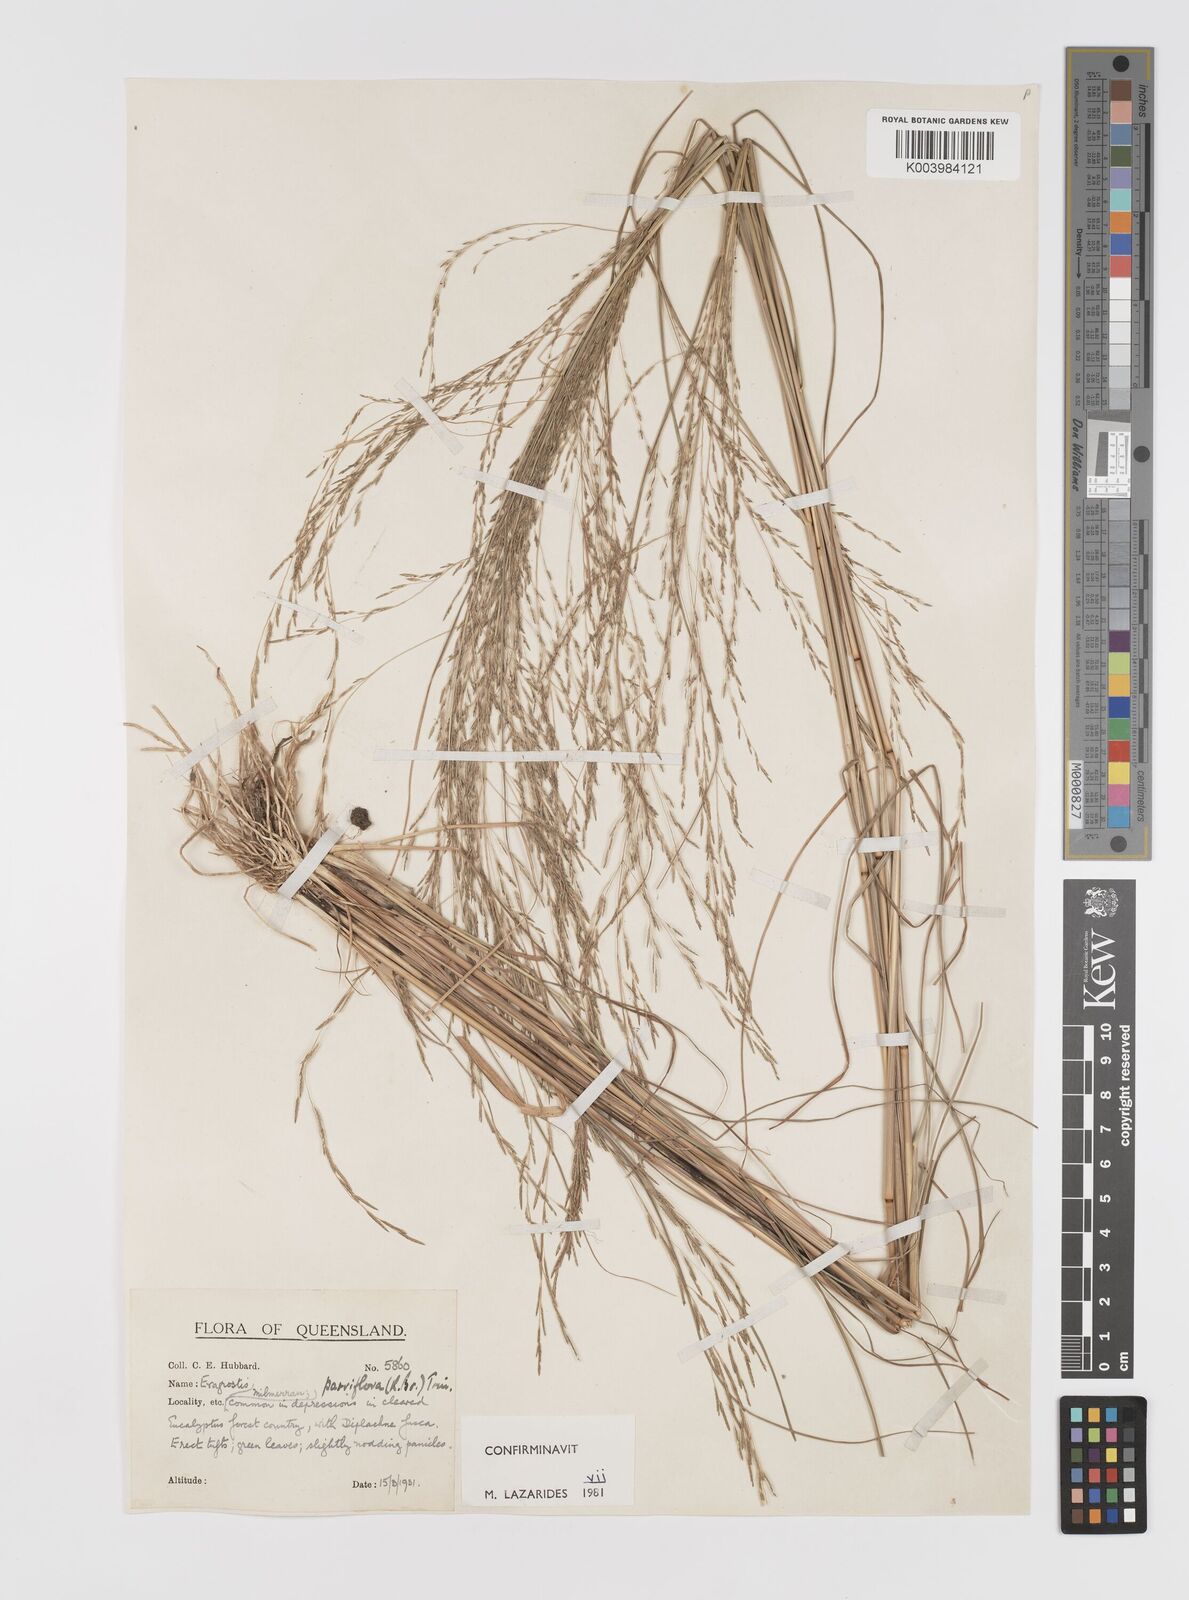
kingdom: Plantae
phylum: Tracheophyta
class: Liliopsida
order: Poales
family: Poaceae
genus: Eragrostis
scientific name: Eragrostis parviflora
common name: Weeping love-grass
